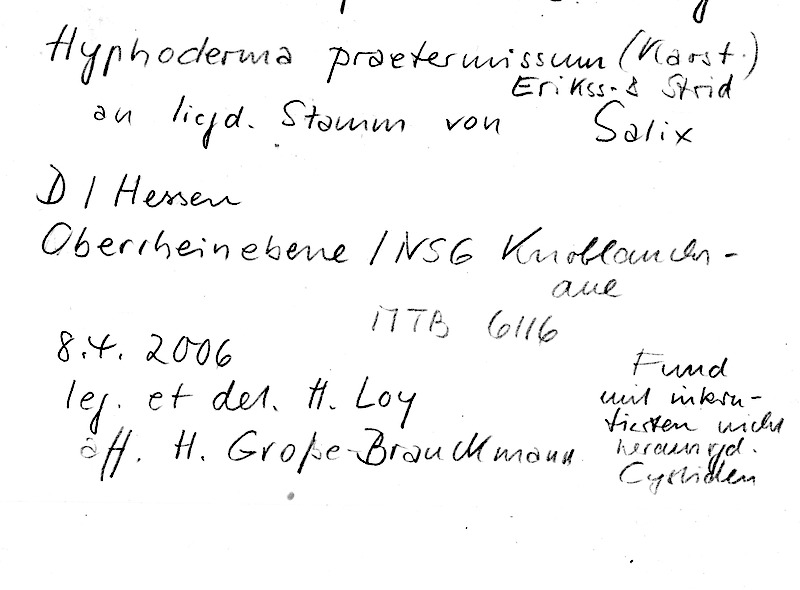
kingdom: Plantae
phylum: Tracheophyta
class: Magnoliopsida
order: Malpighiales
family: Salicaceae
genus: Salix
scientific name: Salix
